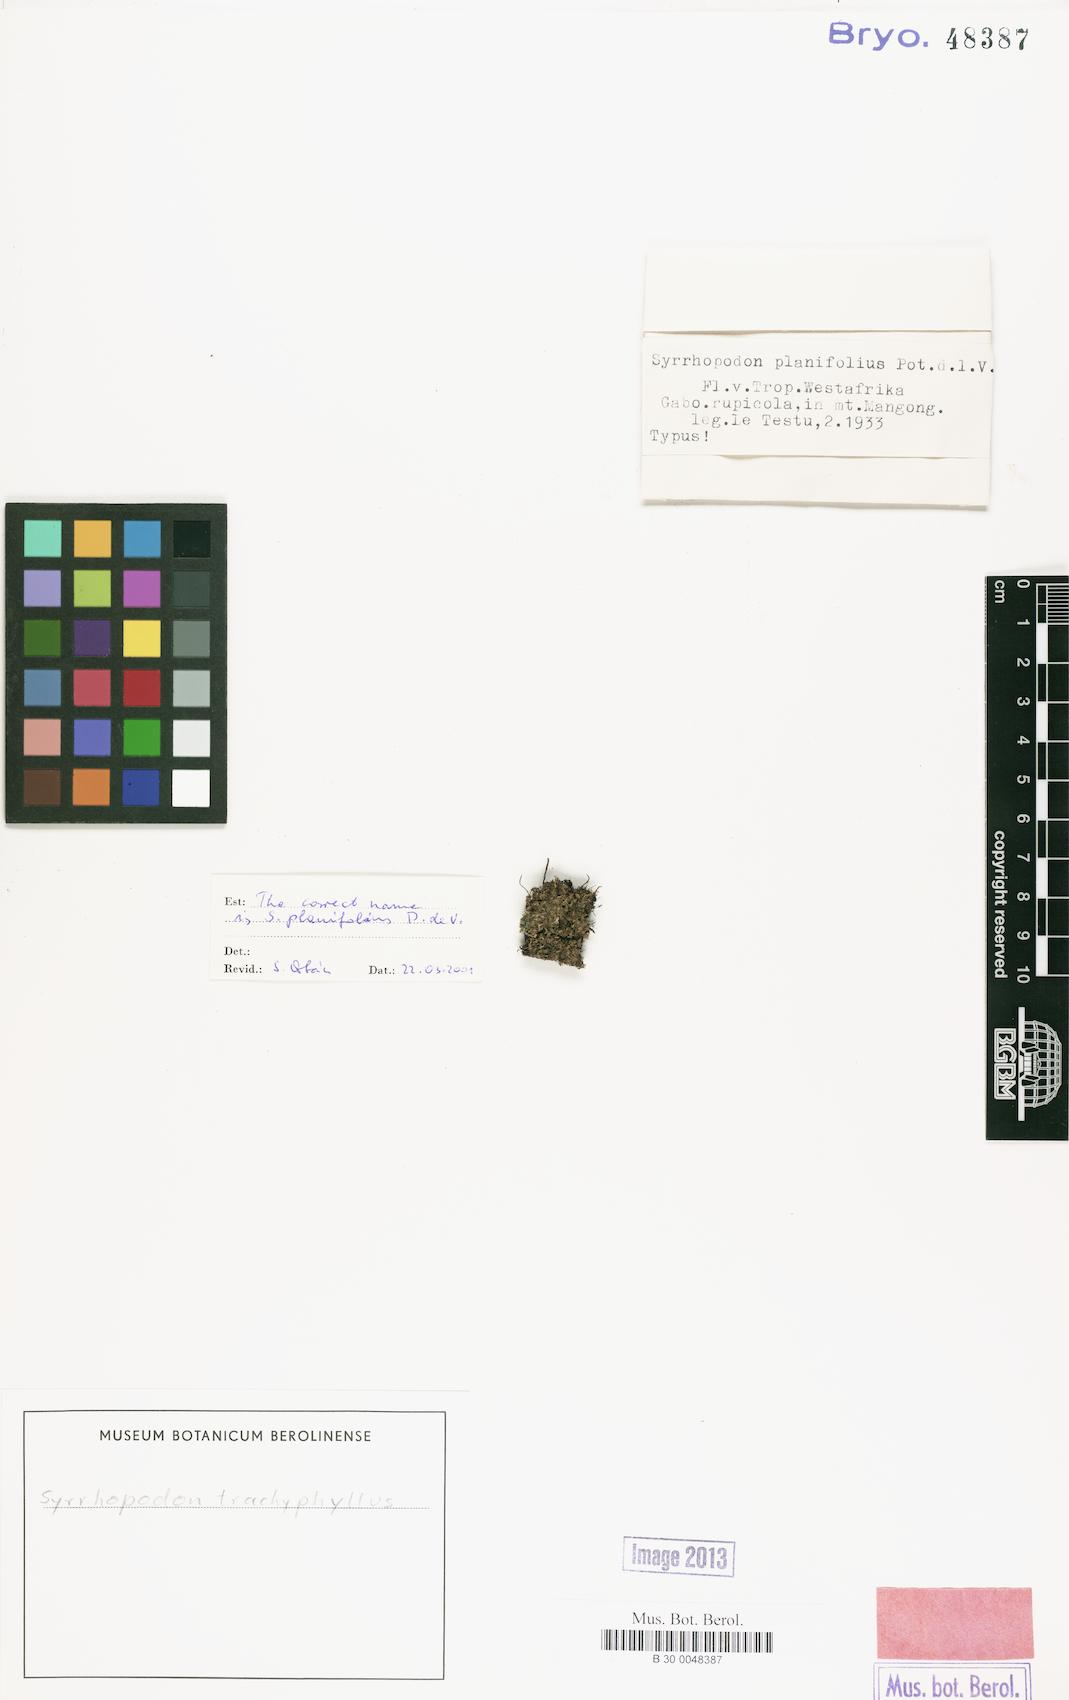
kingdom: Plantae
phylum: Bryophyta
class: Bryopsida
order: Dicranales
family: Calymperaceae
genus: Syrrhopodon
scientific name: Syrrhopodon trachyphyllus
